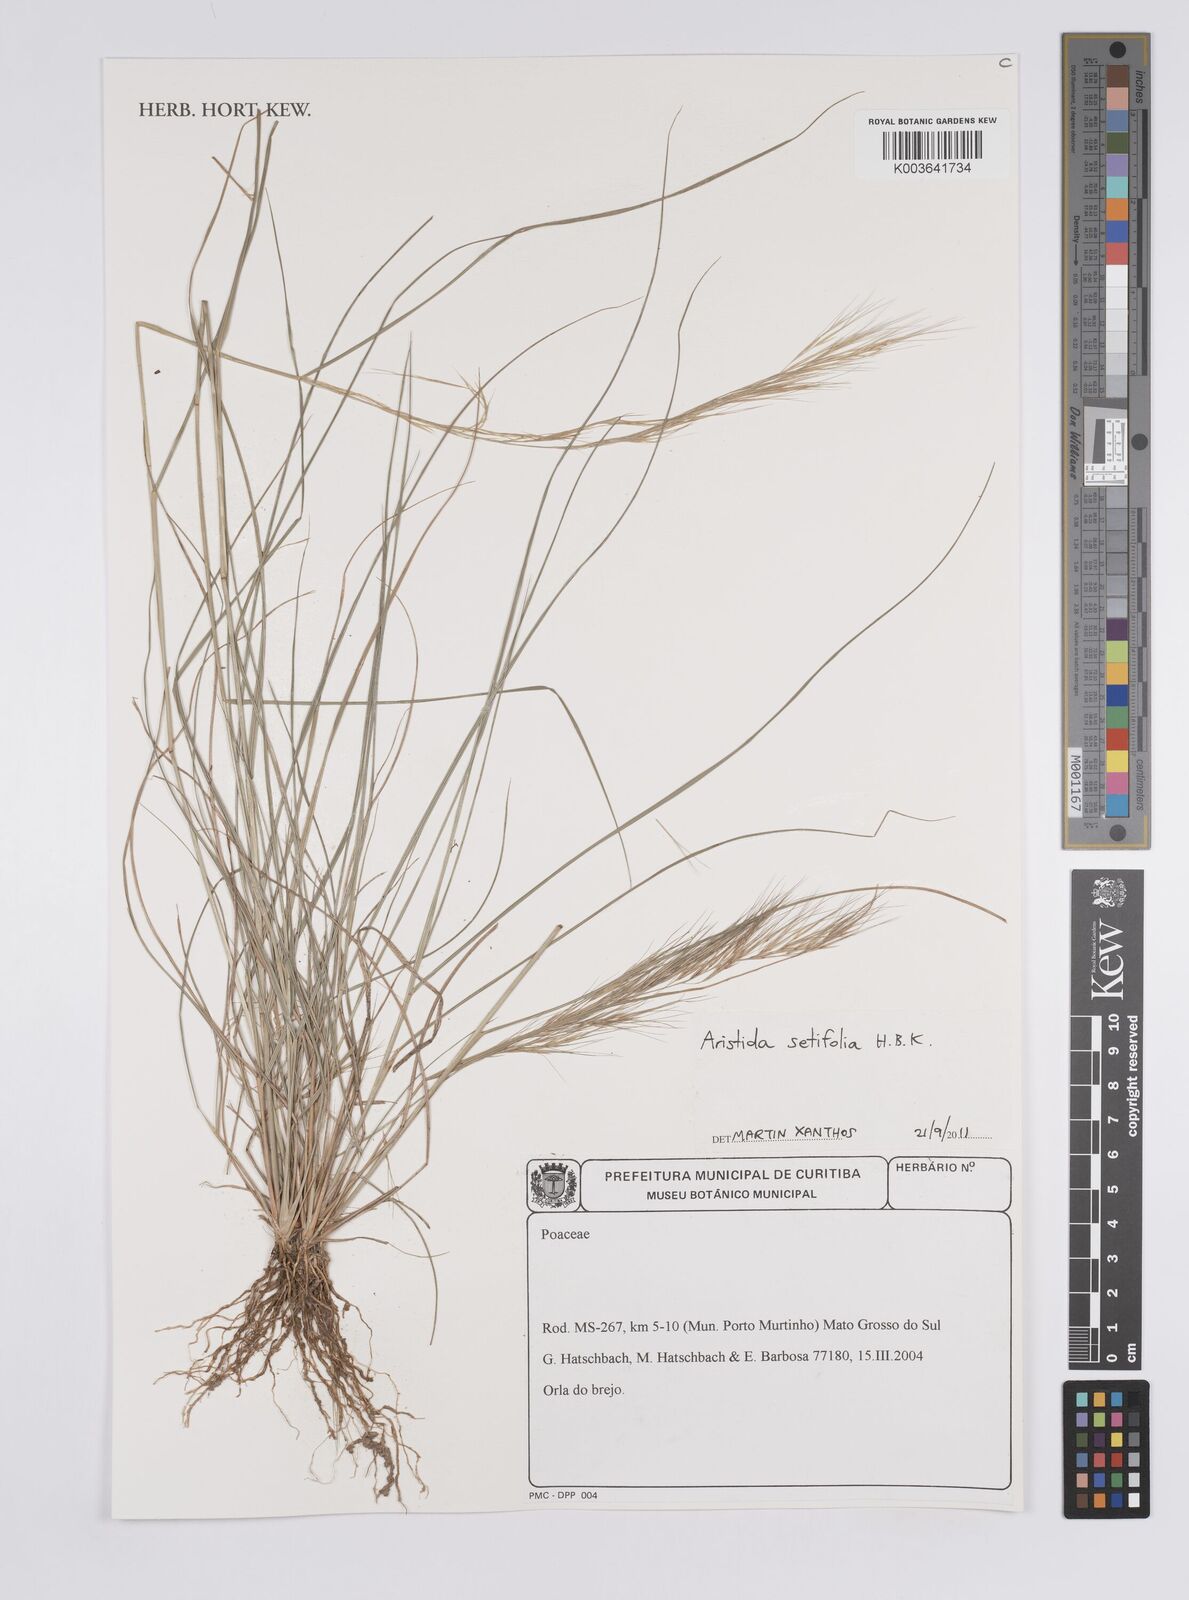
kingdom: Plantae
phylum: Tracheophyta
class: Liliopsida
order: Poales
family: Poaceae
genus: Aristida
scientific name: Aristida setifolia
